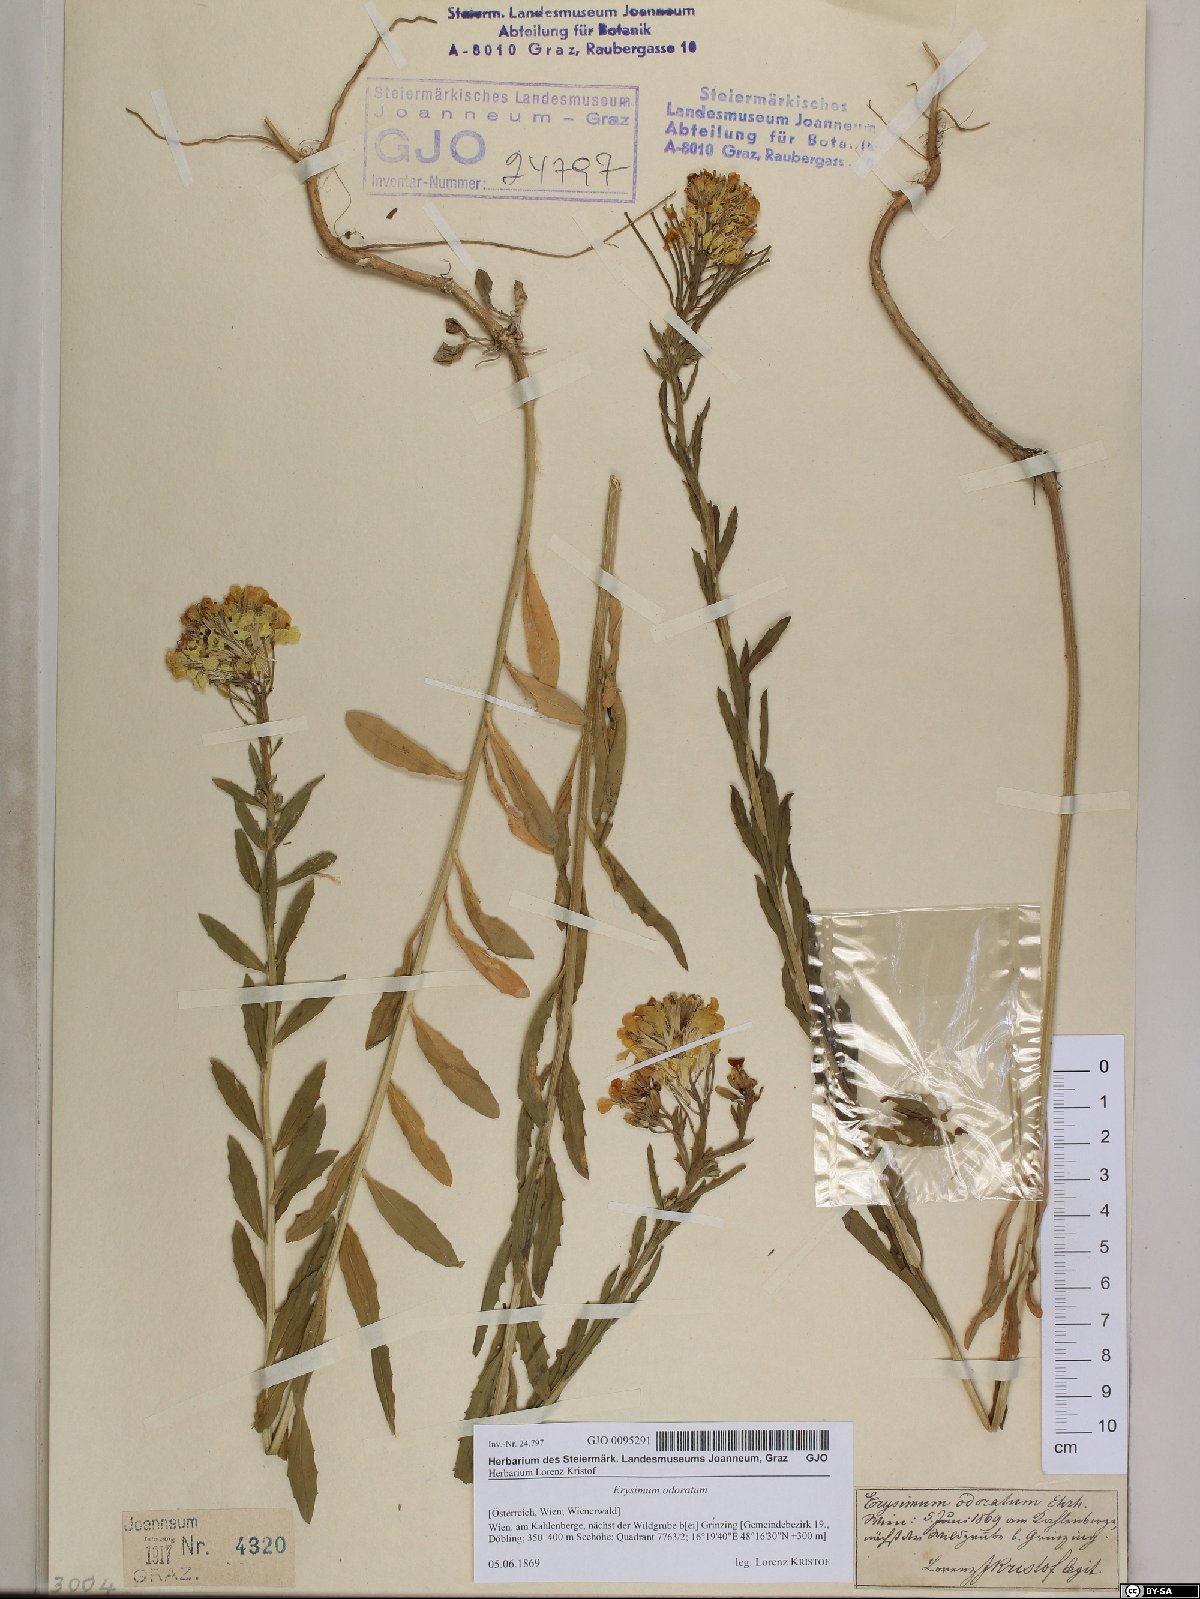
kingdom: Plantae
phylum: Tracheophyta
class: Magnoliopsida
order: Brassicales
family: Brassicaceae
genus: Erysimum
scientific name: Erysimum odoratum
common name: Smelly wallflower
